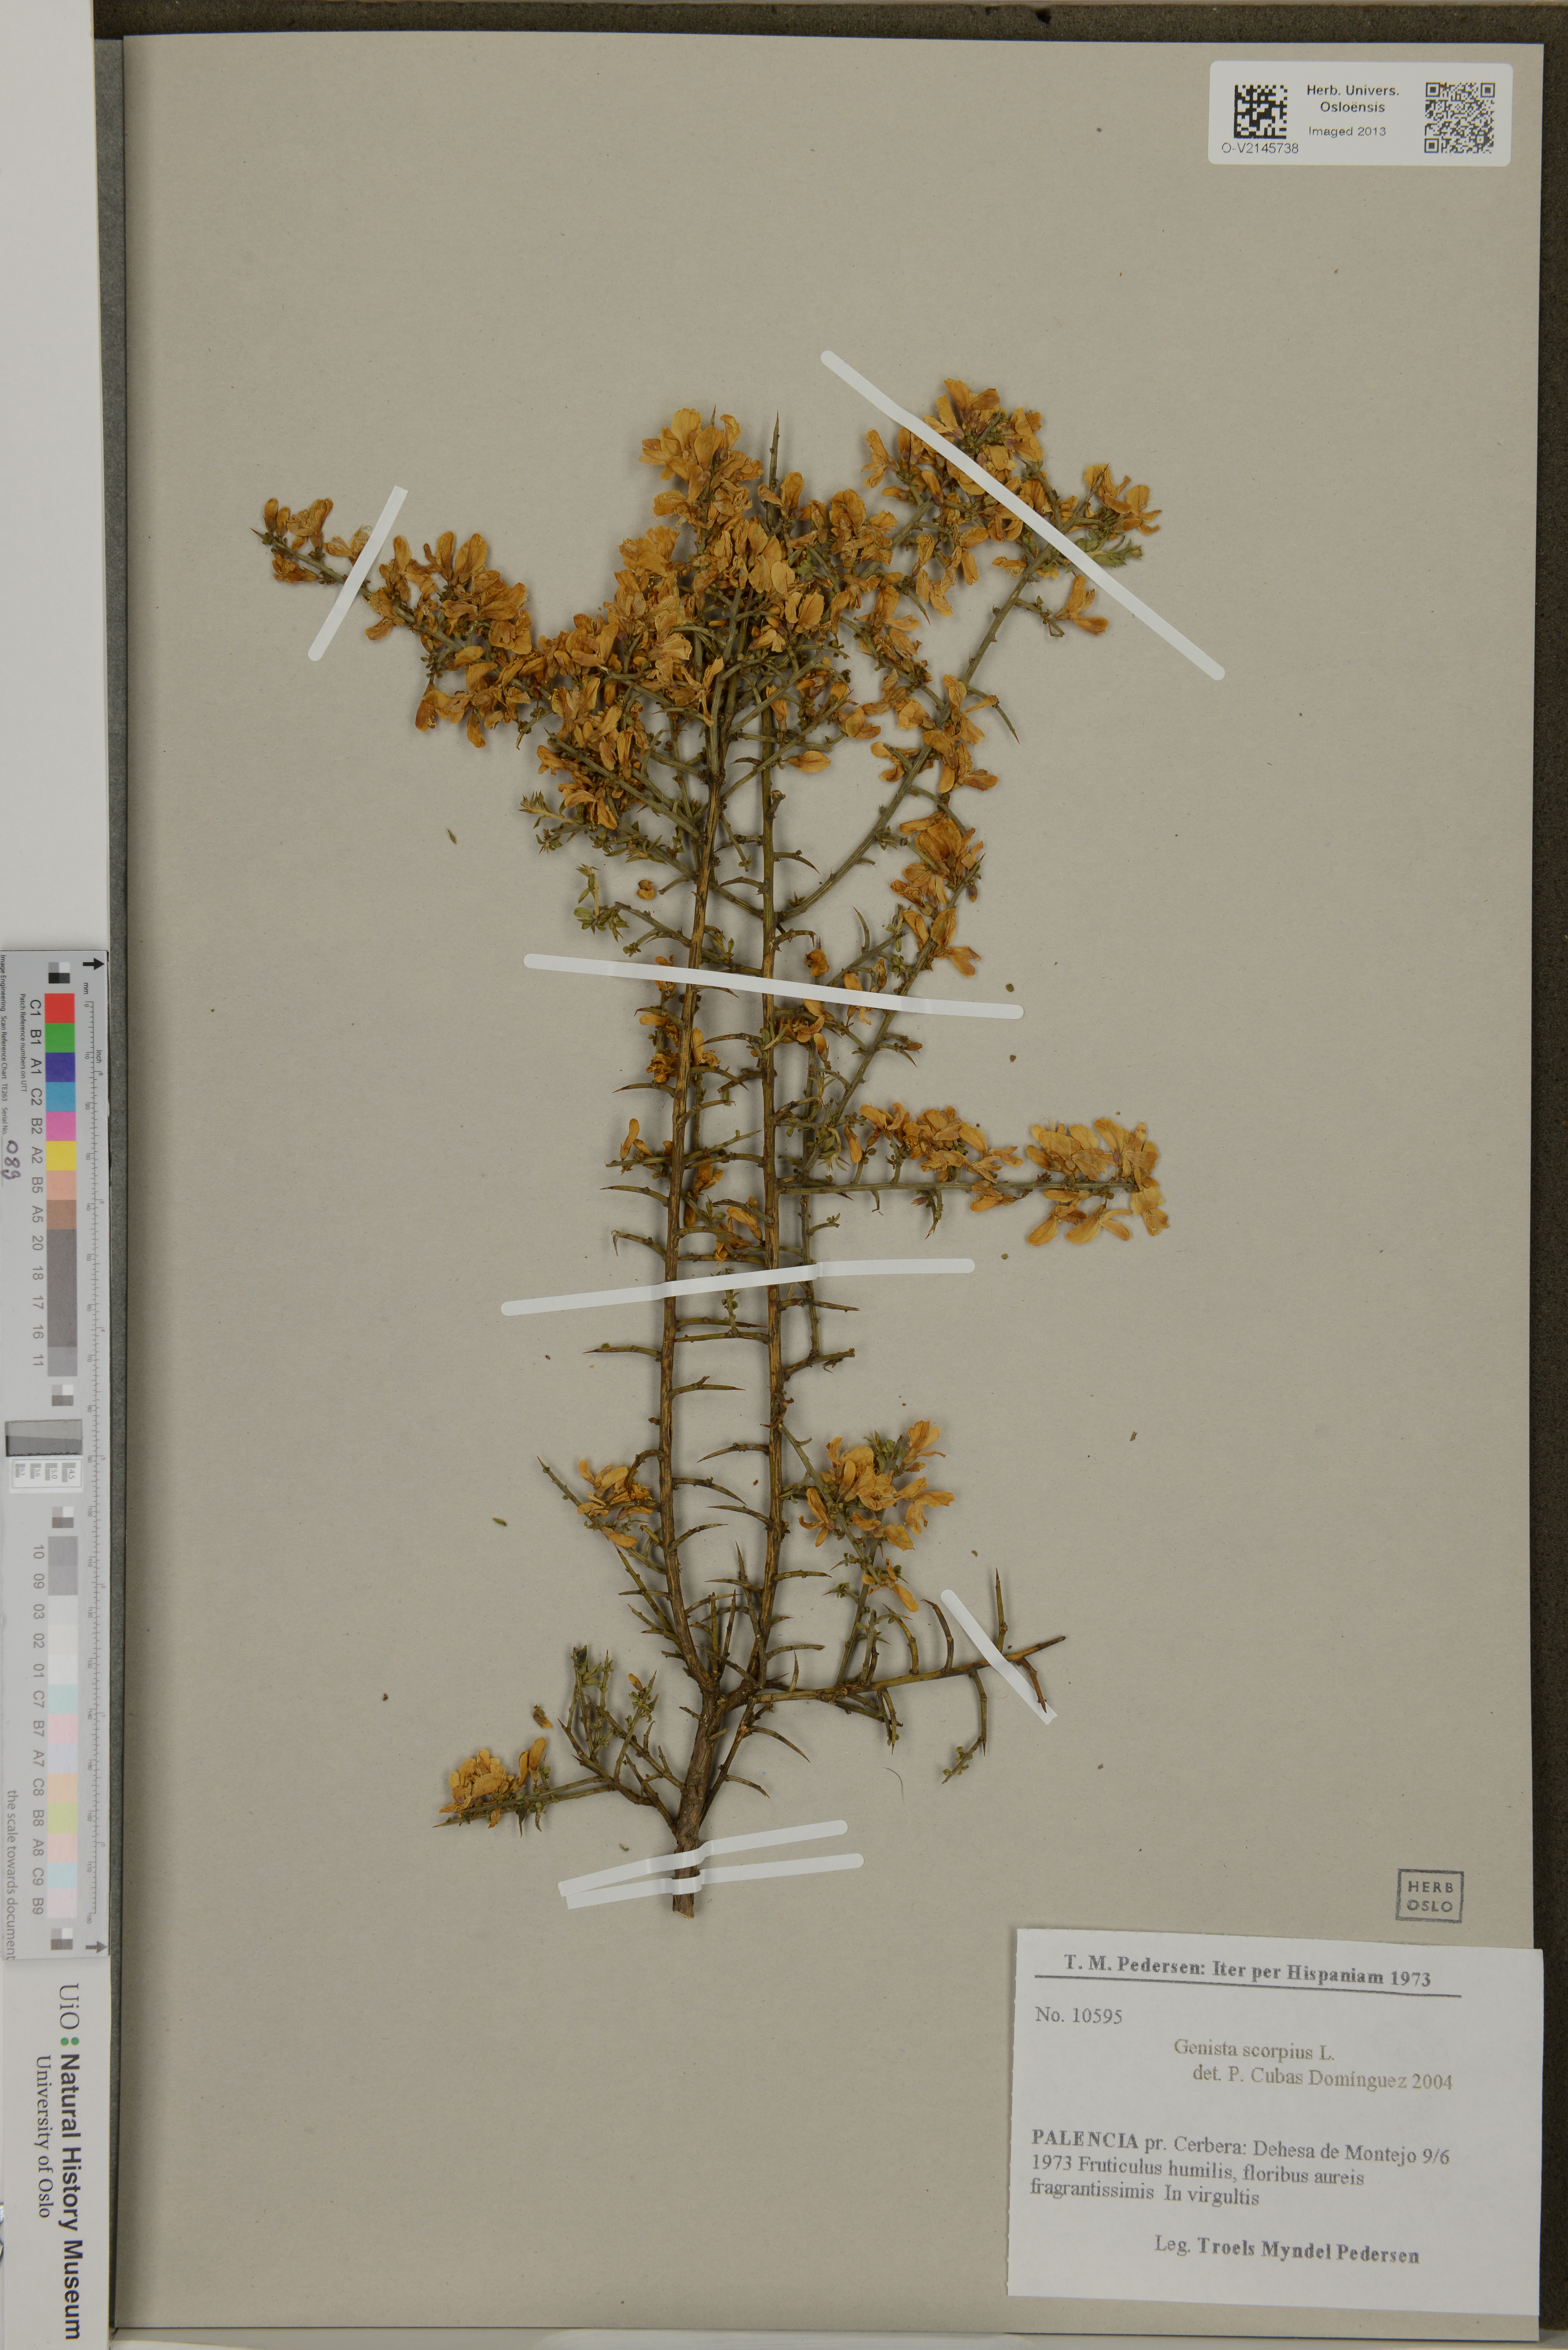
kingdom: Plantae
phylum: Tracheophyta
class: Magnoliopsida
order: Fabales
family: Fabaceae
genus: Genista
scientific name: Genista scorpius
